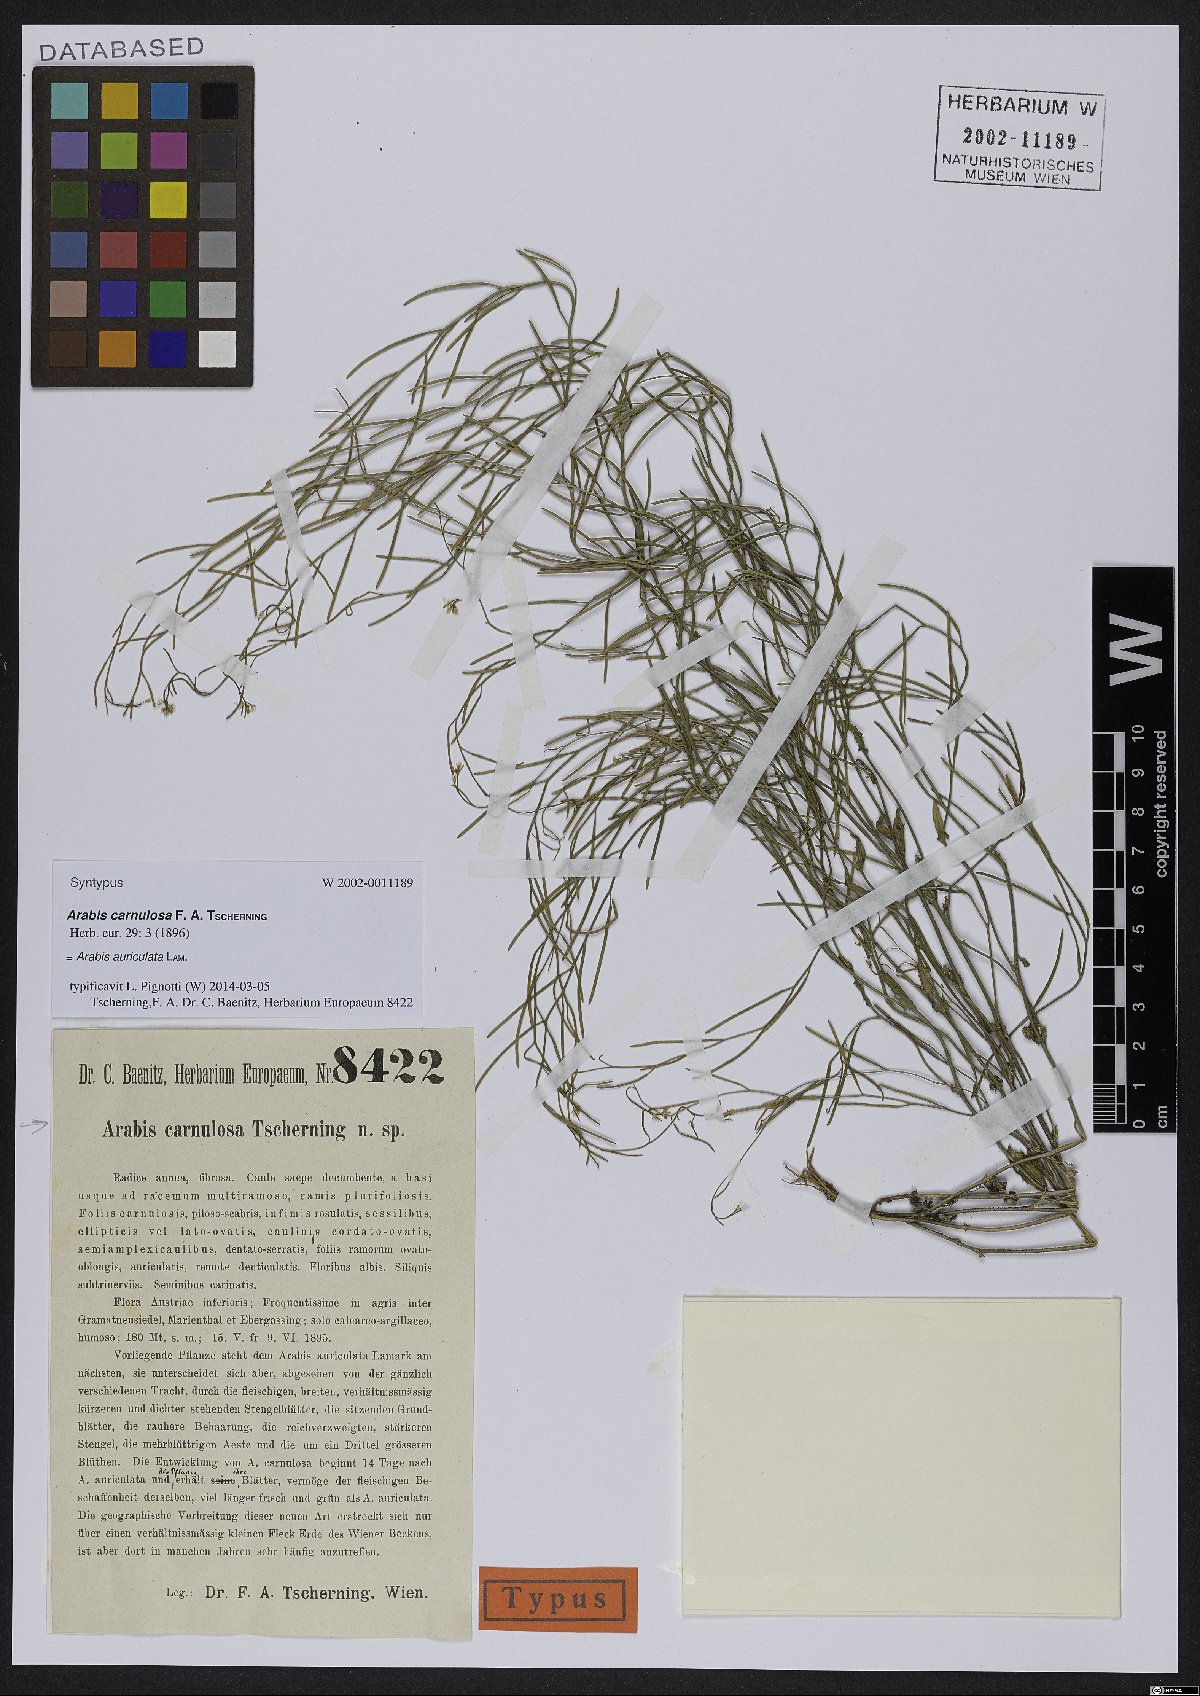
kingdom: Plantae
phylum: Tracheophyta
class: Magnoliopsida
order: Brassicales
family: Brassicaceae
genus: Arabis
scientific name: Arabis auriculata
